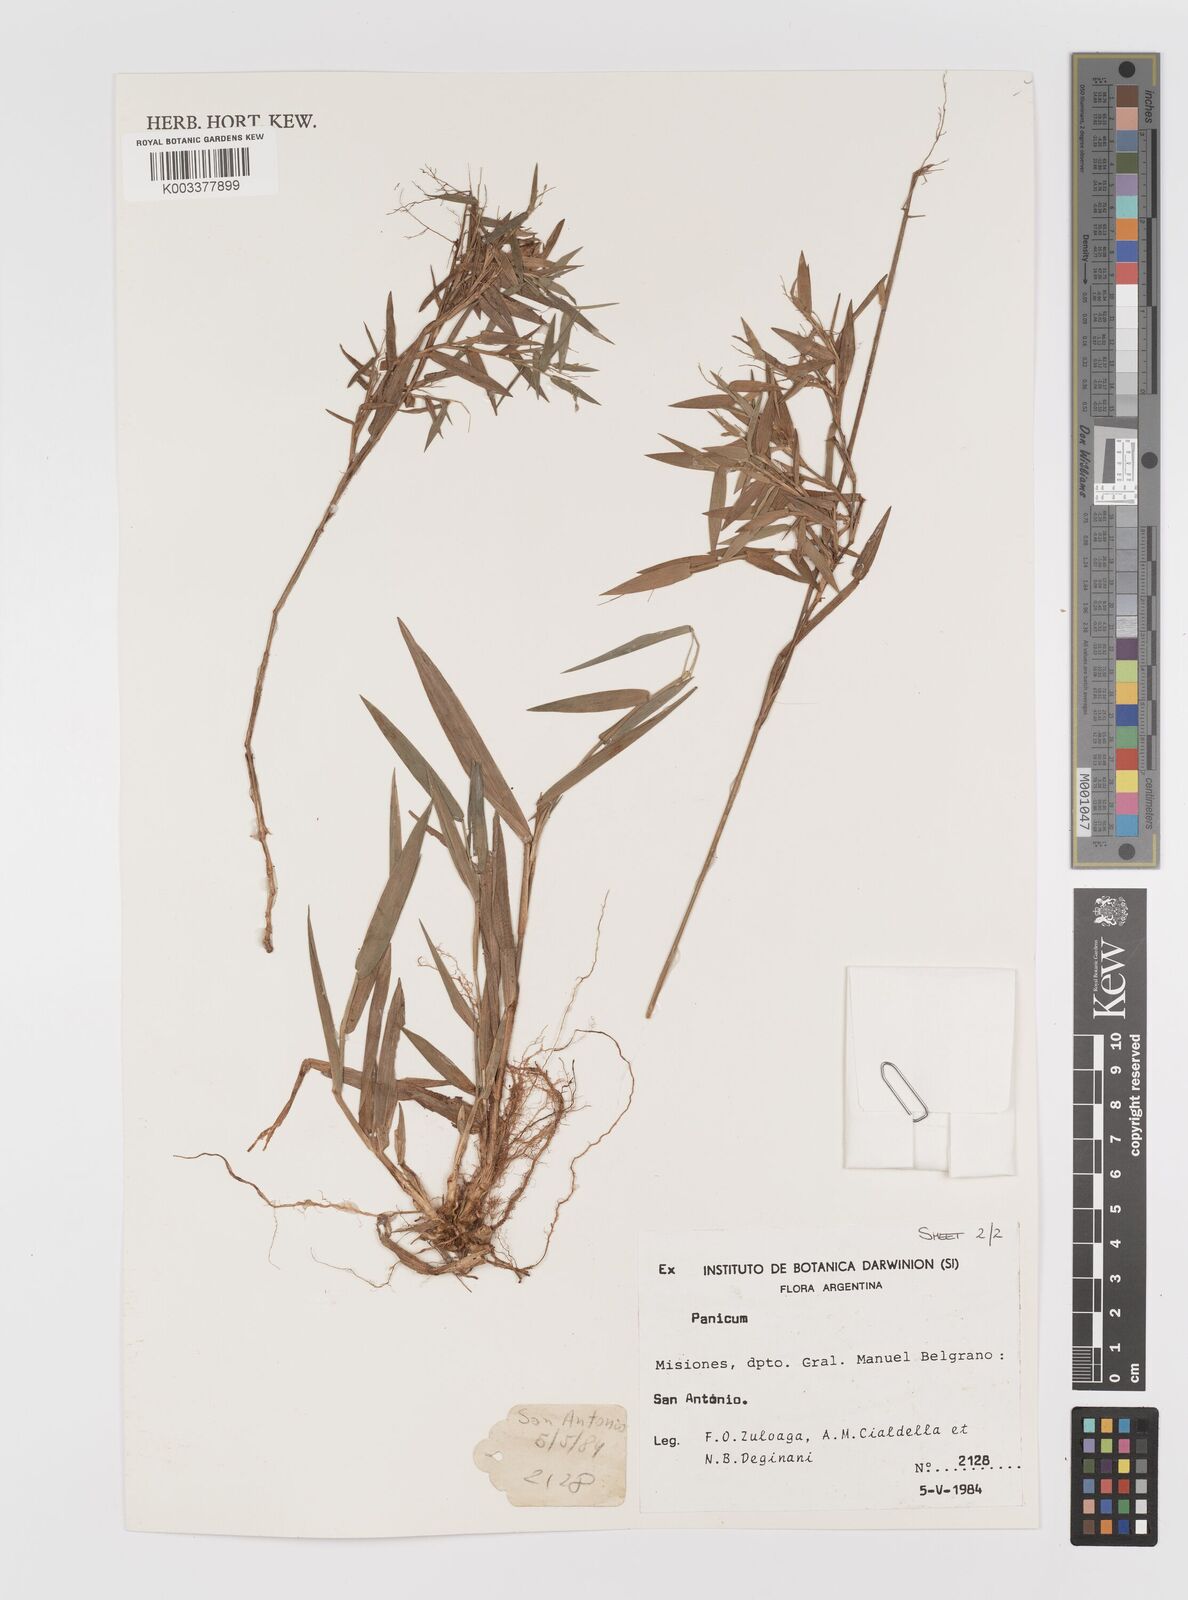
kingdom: Plantae
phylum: Tracheophyta
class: Liliopsida
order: Poales
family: Poaceae
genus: Panicum
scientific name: Panicum
